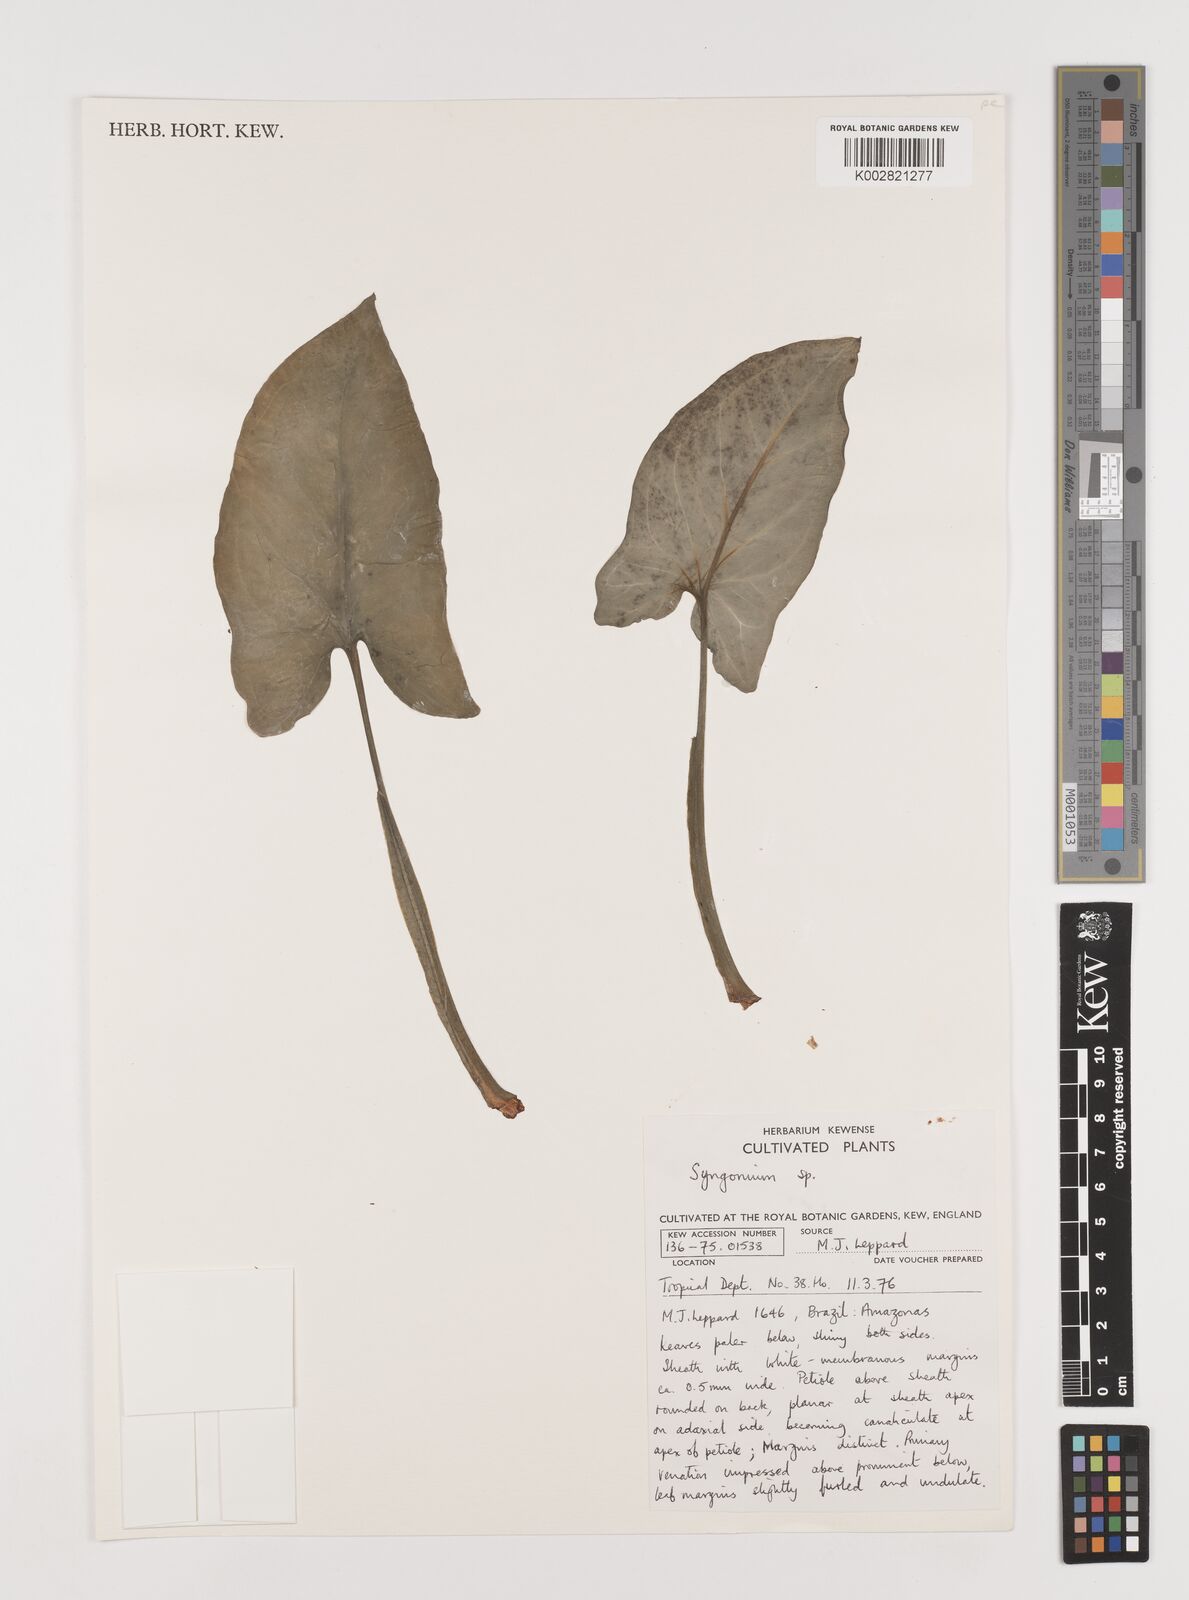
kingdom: Plantae
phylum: Tracheophyta
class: Liliopsida
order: Alismatales
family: Araceae
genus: Syngonium
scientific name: Syngonium
